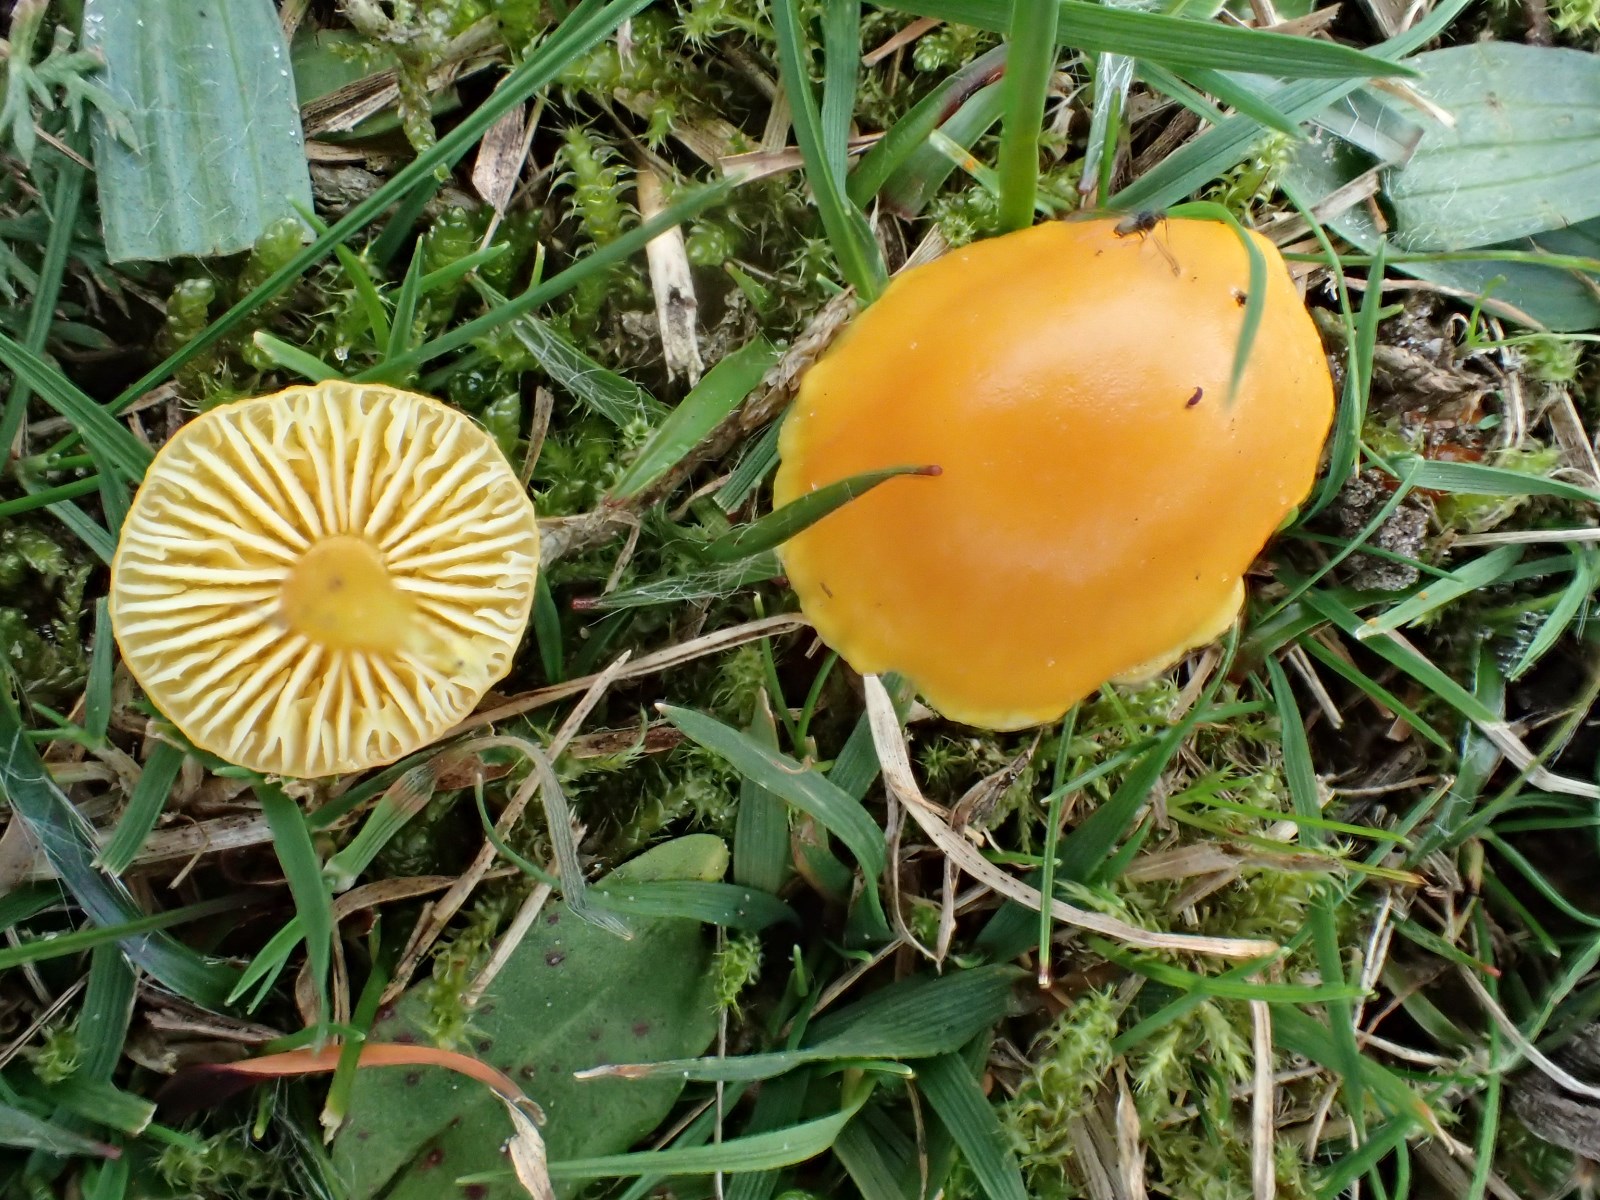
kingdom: Fungi
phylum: Basidiomycota
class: Agaricomycetes
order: Agaricales
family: Hygrophoraceae
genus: Hygrocybe
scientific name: Hygrocybe ceracea
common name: voksgul vokshat
